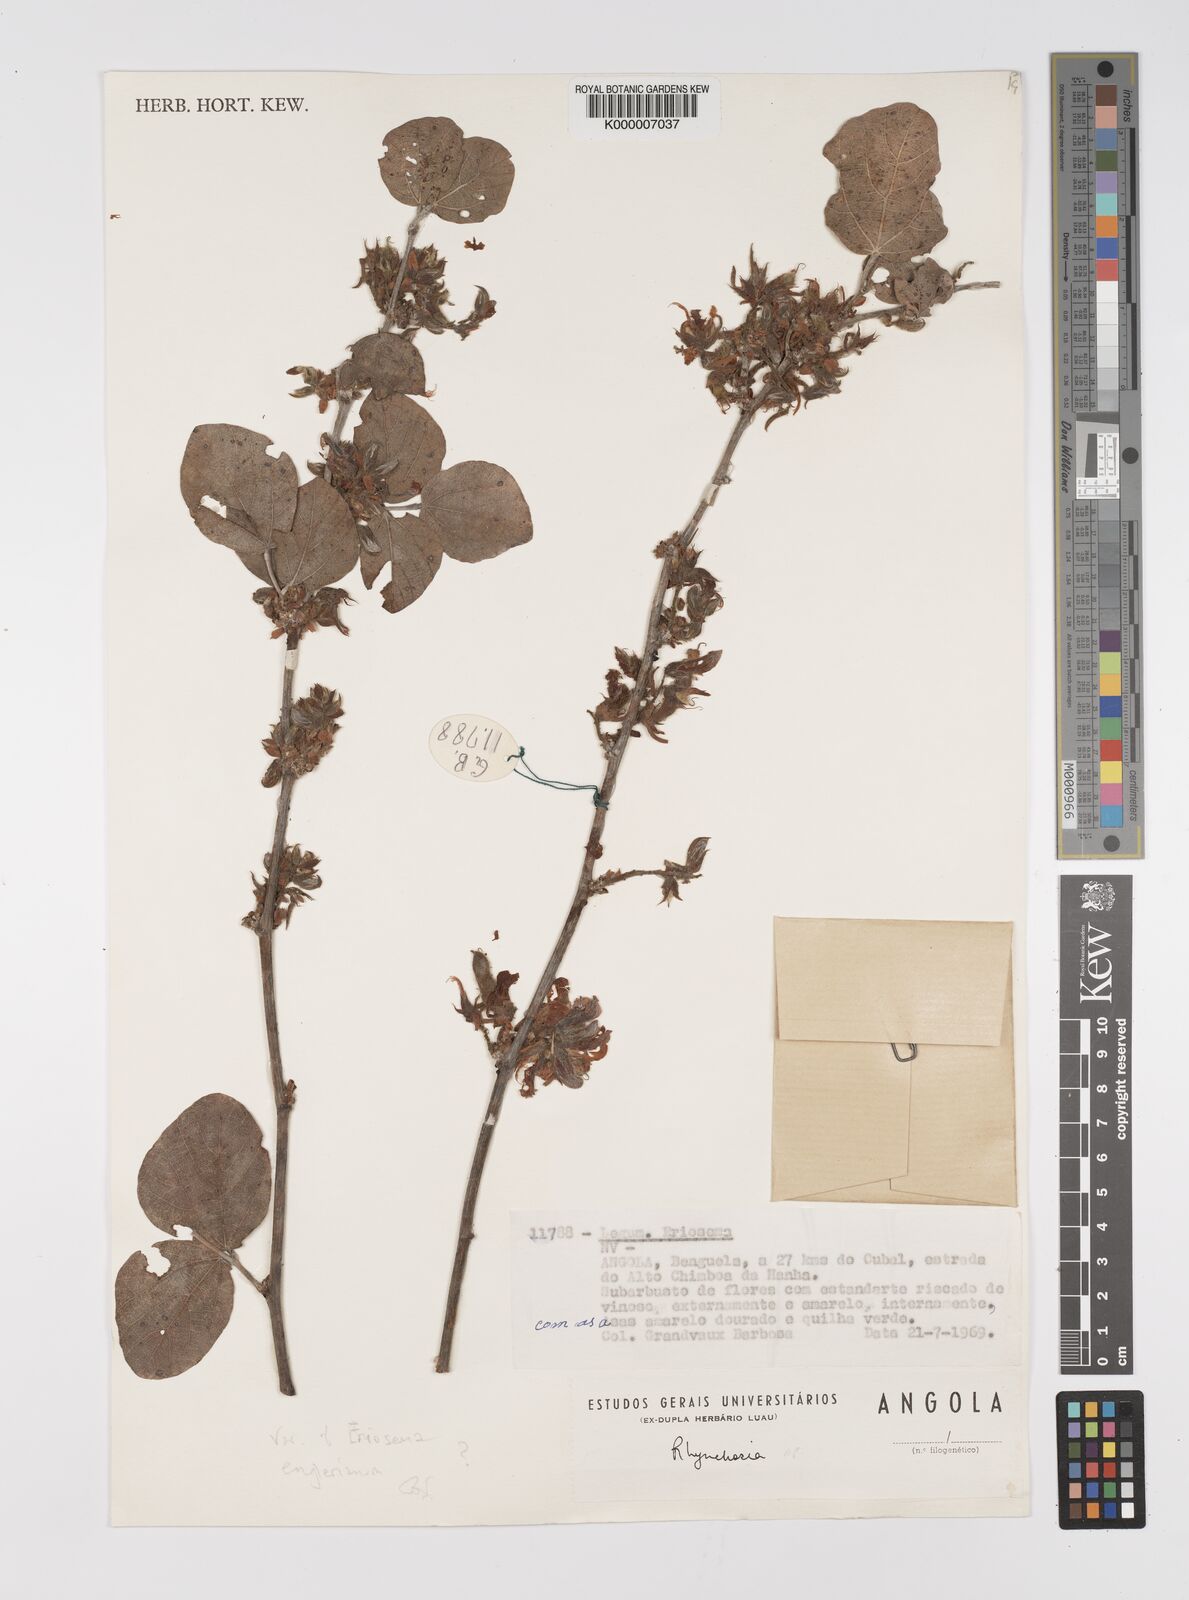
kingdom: Plantae
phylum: Tracheophyta
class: Magnoliopsida
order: Fabales
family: Fabaceae
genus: Eriosema
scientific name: Eriosema englerianum
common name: Blue bush
